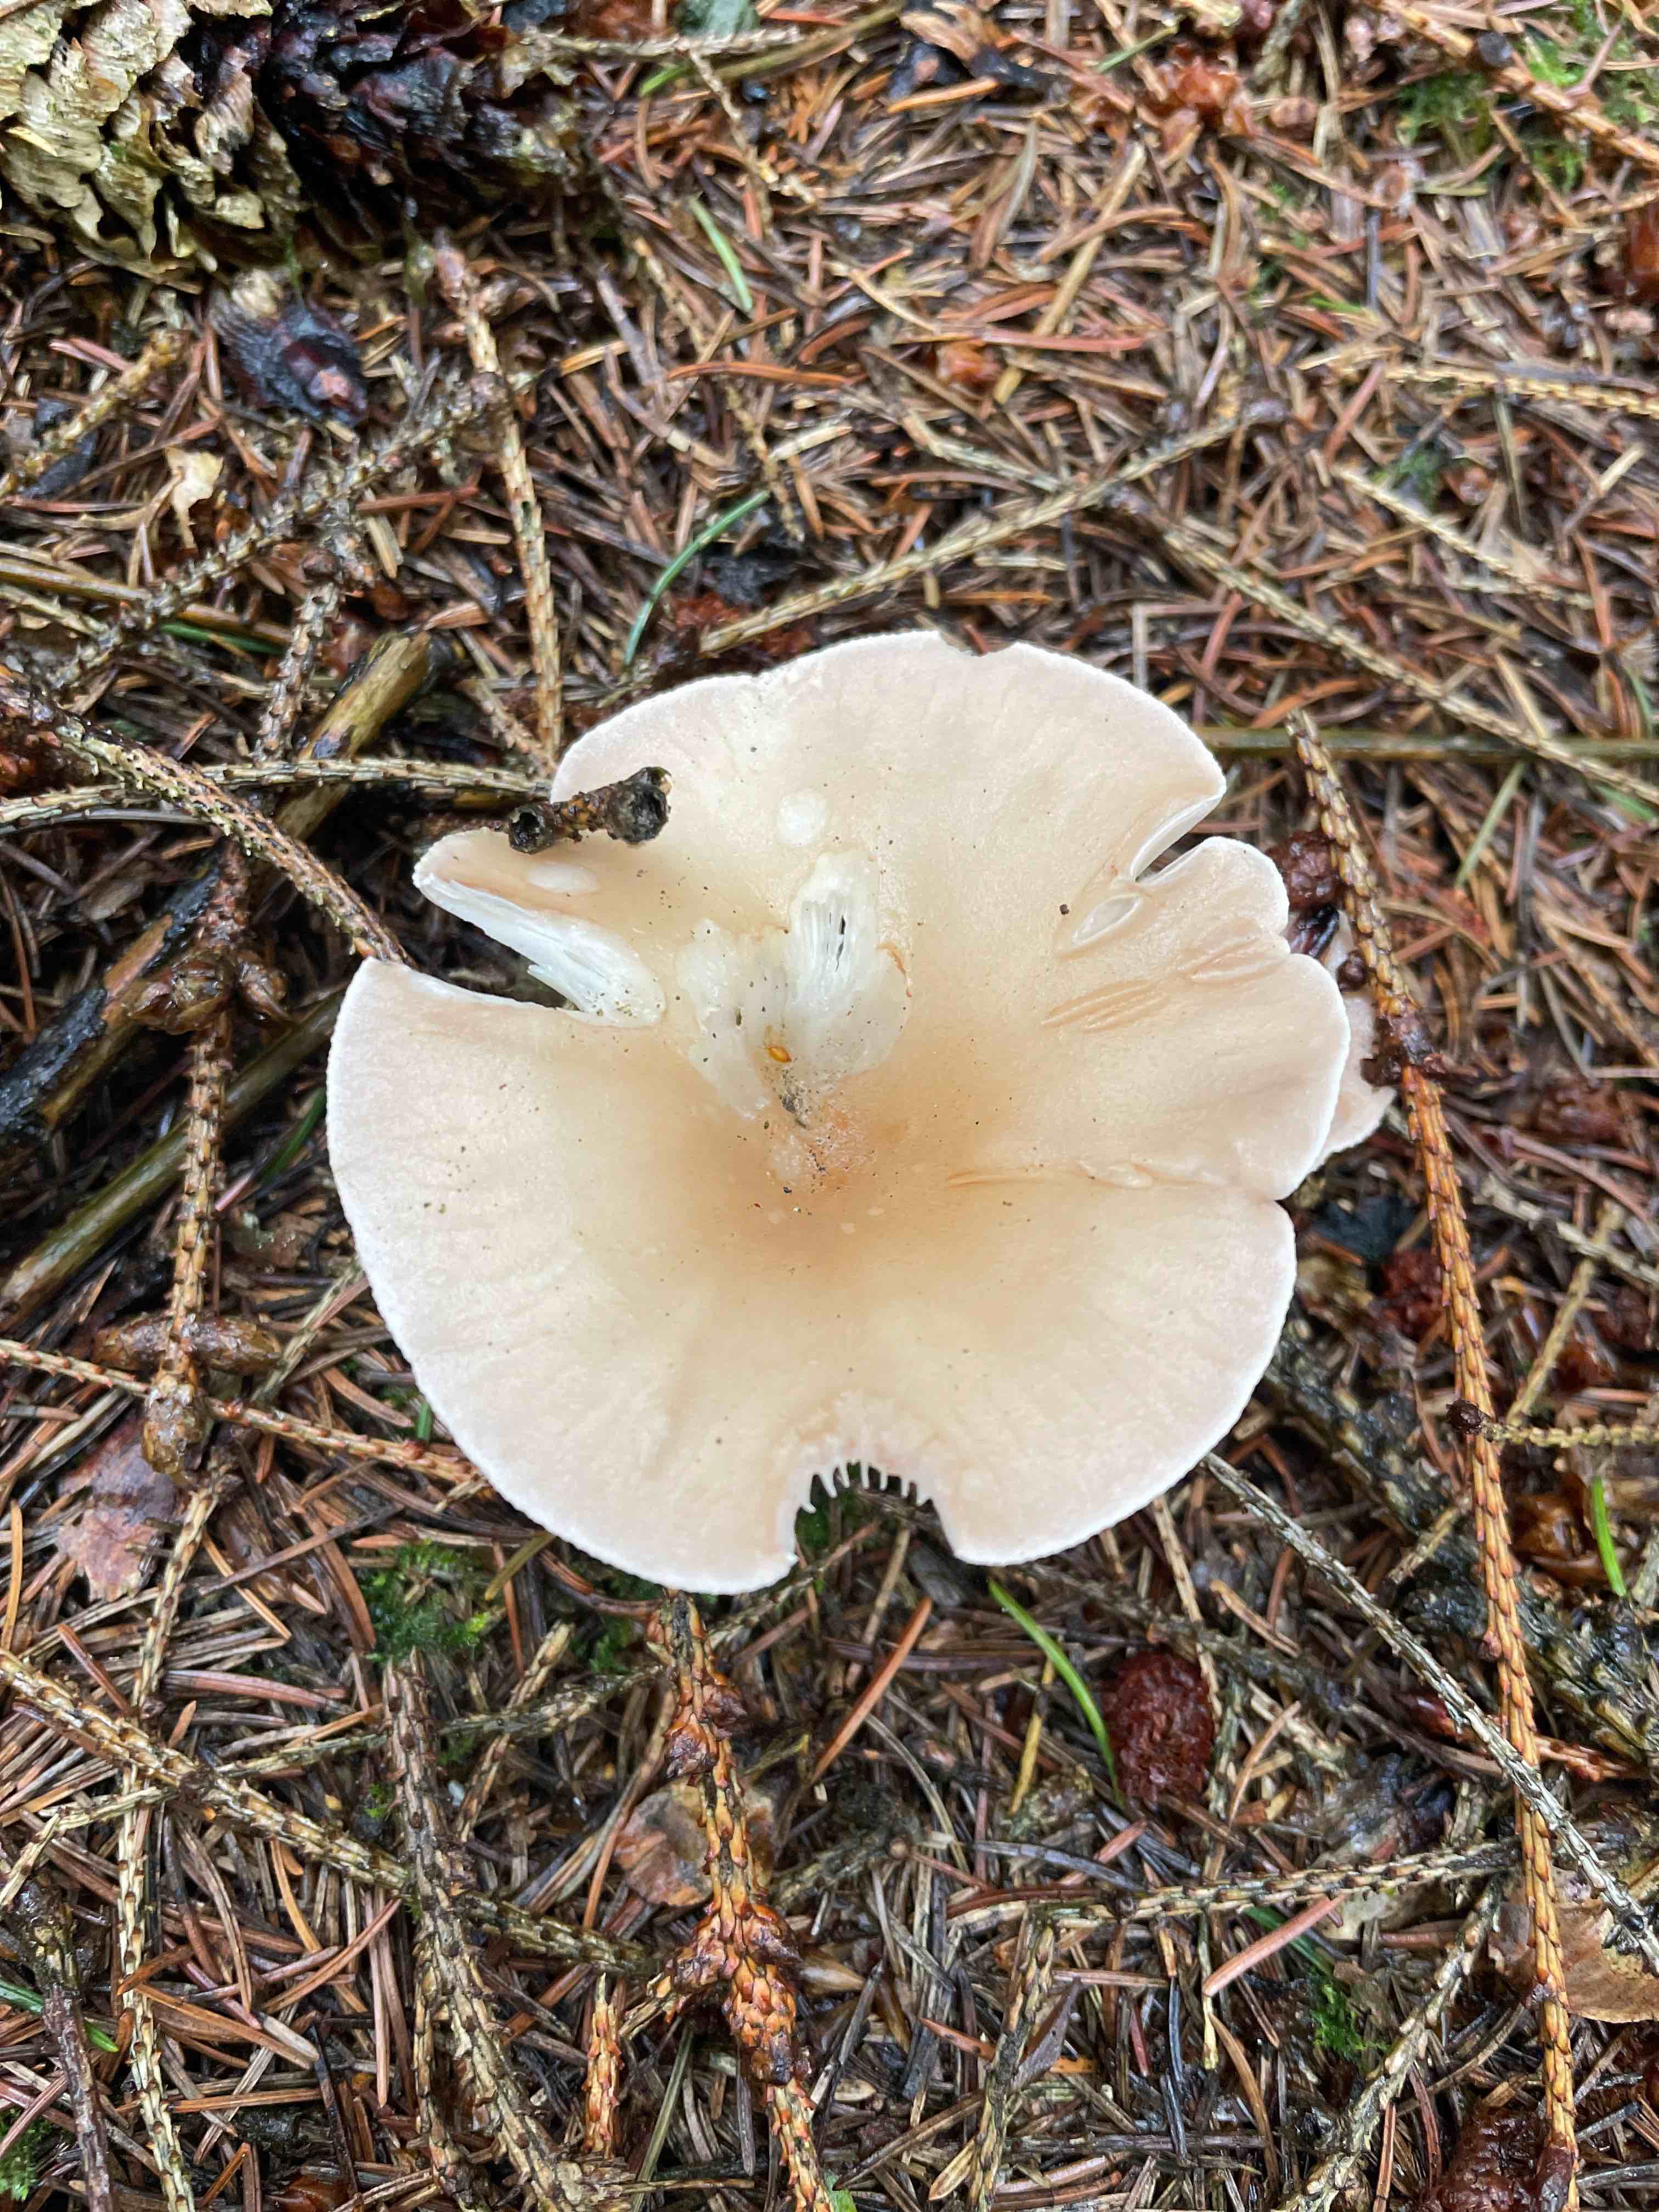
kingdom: Fungi
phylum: Basidiomycota
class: Agaricomycetes
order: Agaricales
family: Tricholomataceae
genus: Infundibulicybe
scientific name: Infundibulicybe gibba
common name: almindelig tragthat
